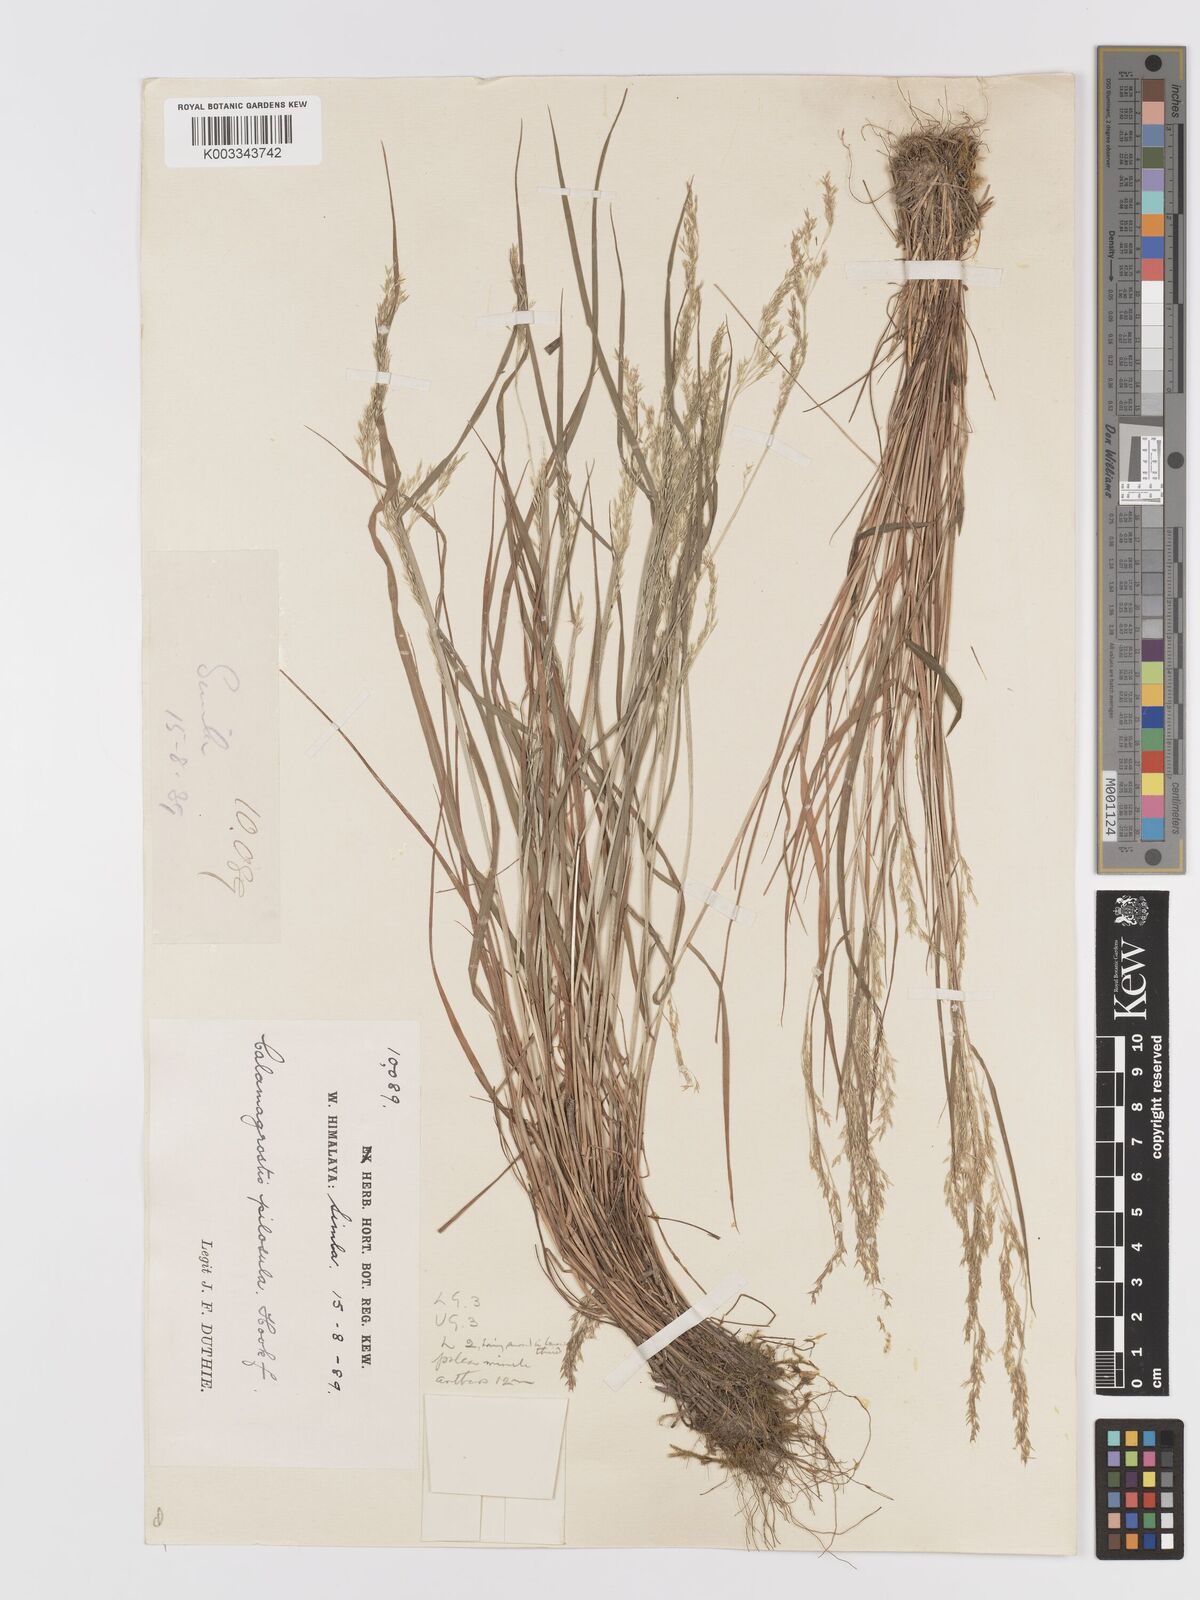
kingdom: Plantae
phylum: Tracheophyta
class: Liliopsida
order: Poales
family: Poaceae
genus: Agrostis
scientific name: Agrostis pilosula
